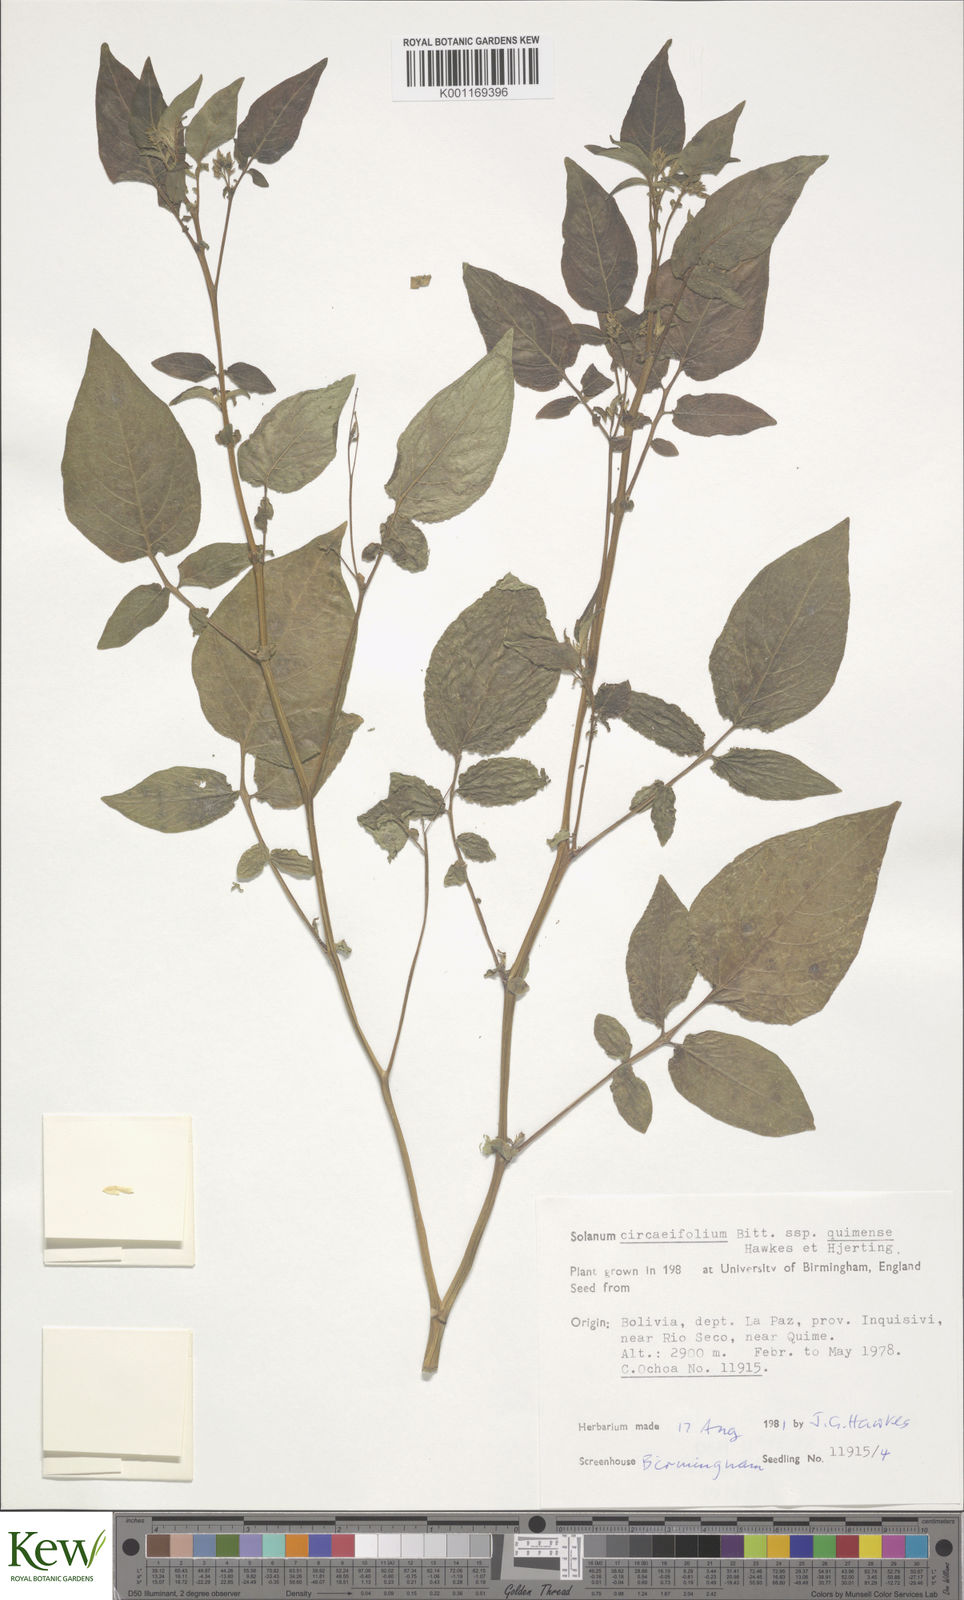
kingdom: Plantae
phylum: Tracheophyta
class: Magnoliopsida
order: Solanales
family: Solanaceae
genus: Solanum
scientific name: Solanum stipuloideum
